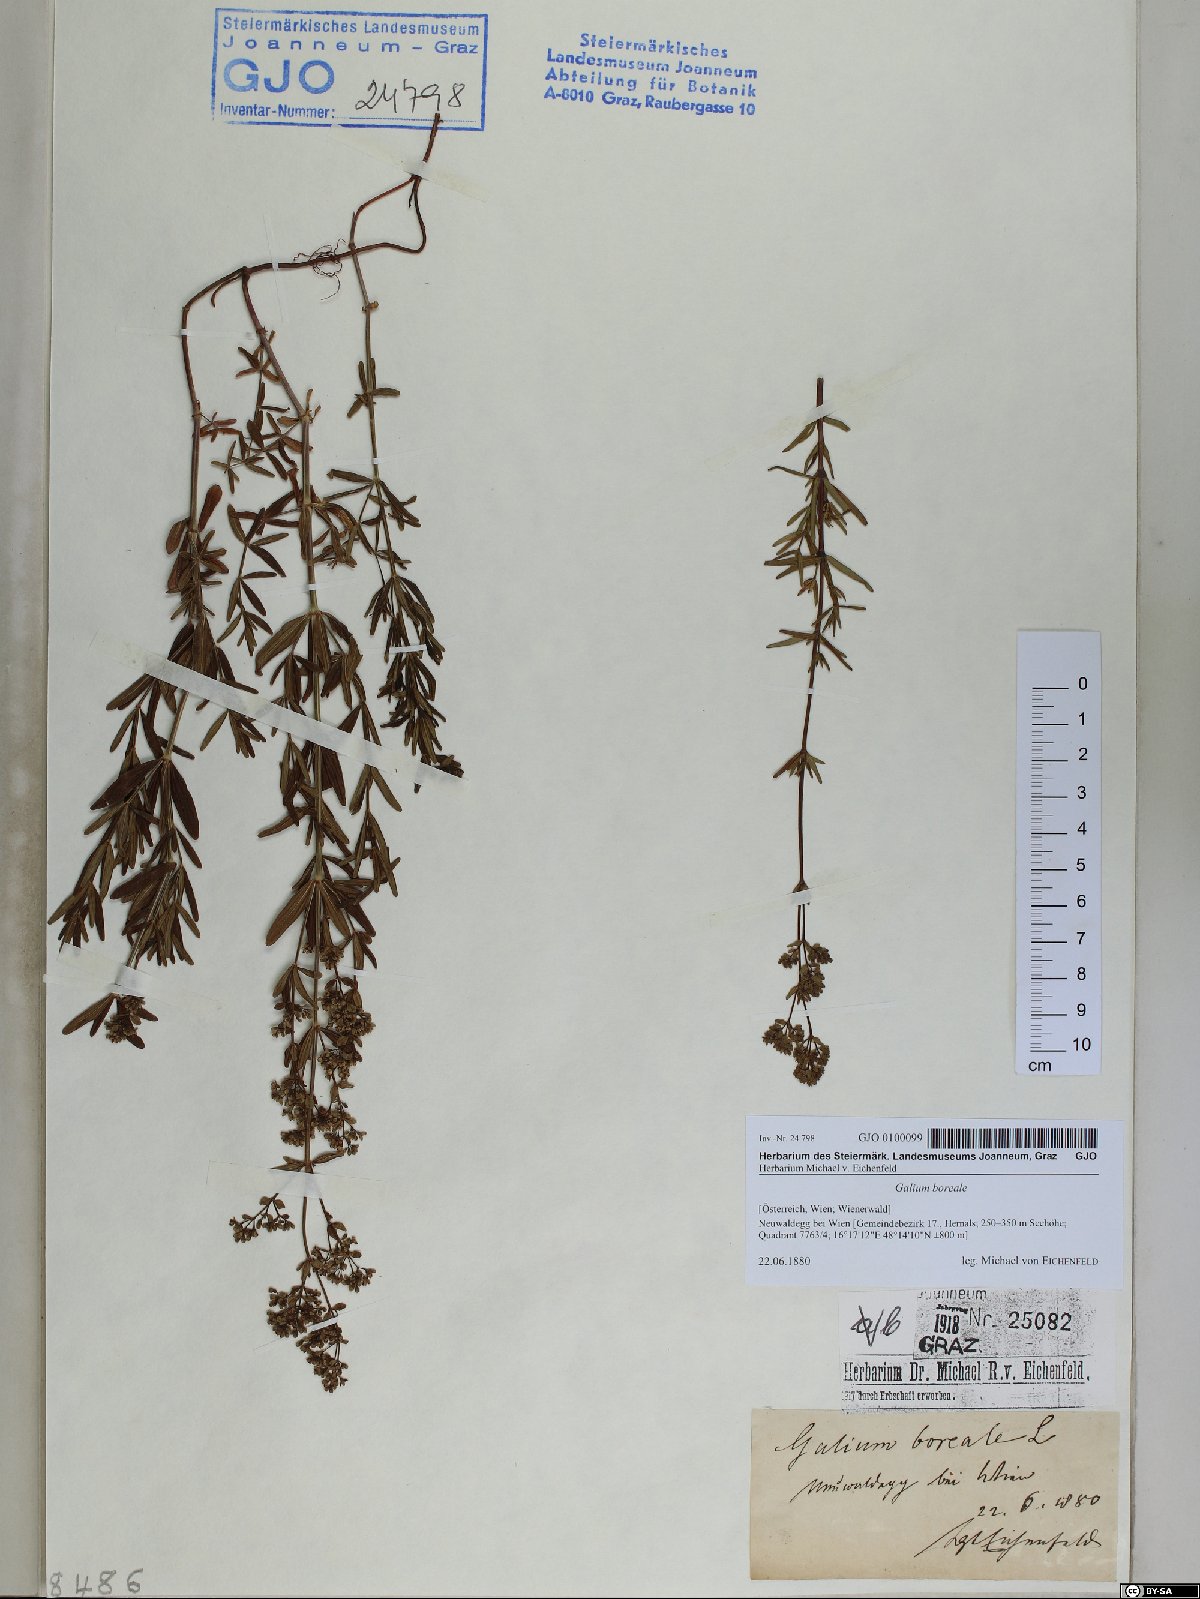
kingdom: Plantae
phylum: Tracheophyta
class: Magnoliopsida
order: Gentianales
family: Rubiaceae
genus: Galium
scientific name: Galium boreale
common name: Northern bedstraw
